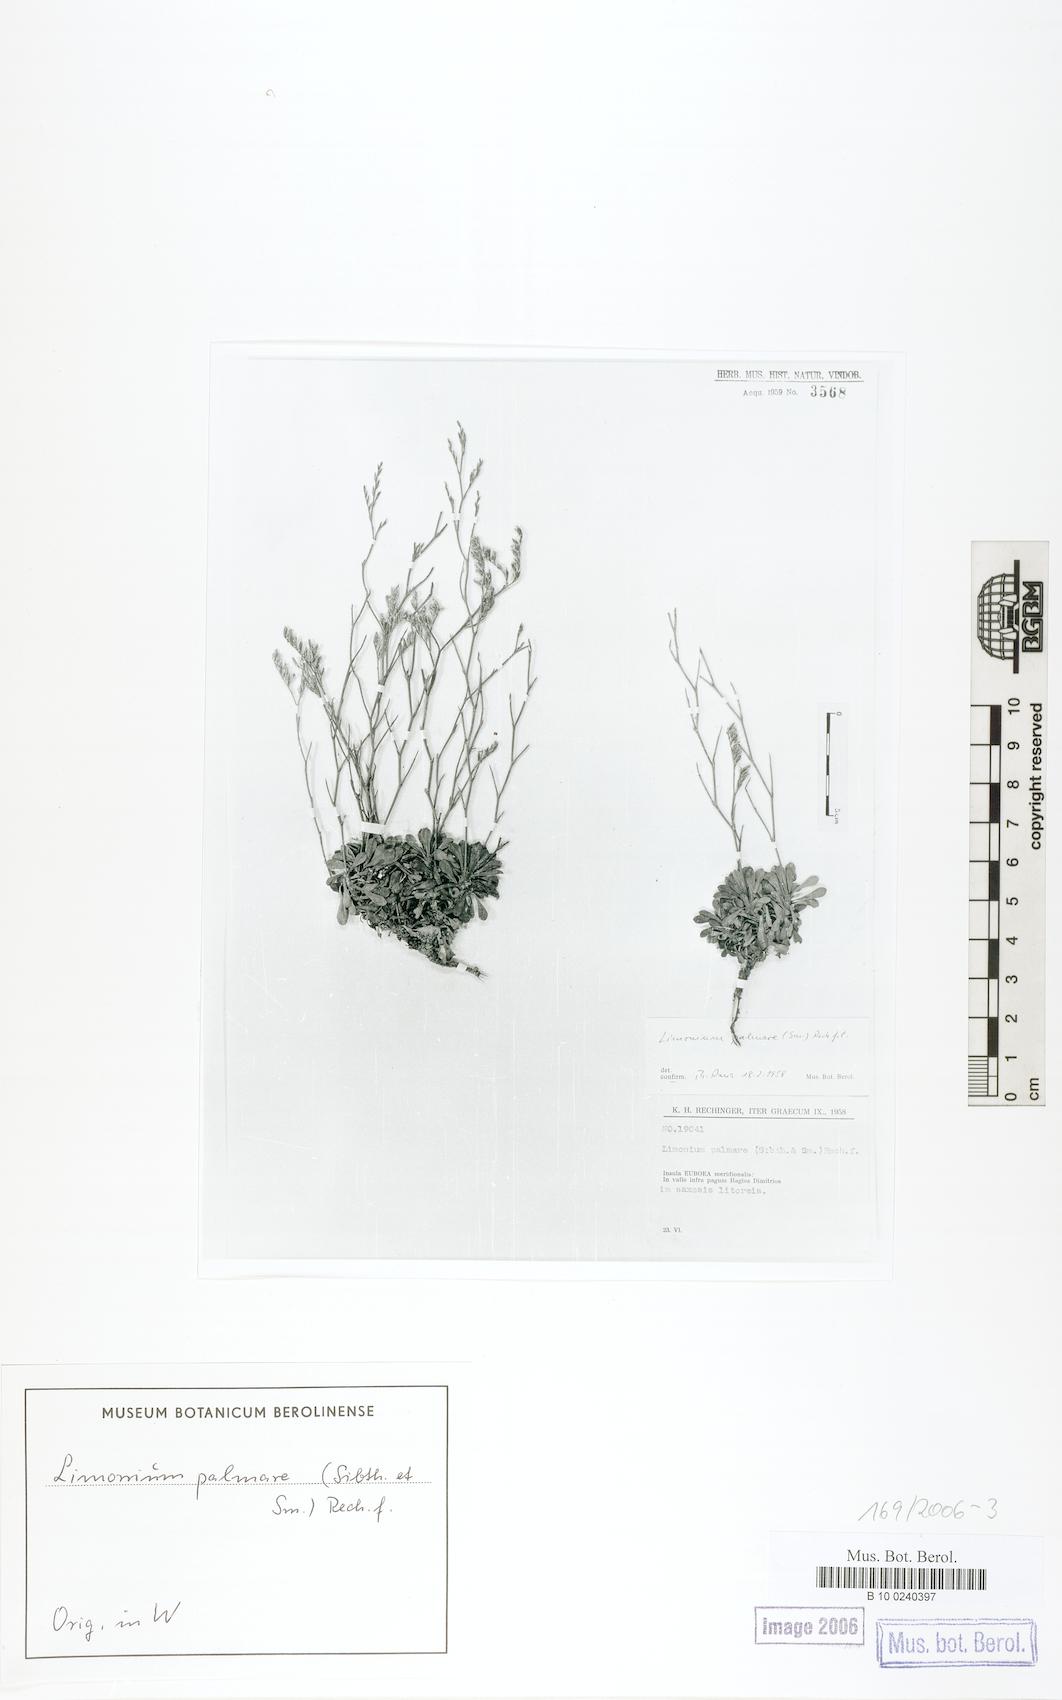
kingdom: Plantae
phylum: Tracheophyta
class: Magnoliopsida
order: Caryophyllales
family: Plumbaginaceae
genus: Limonium
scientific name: Limonium palmare
